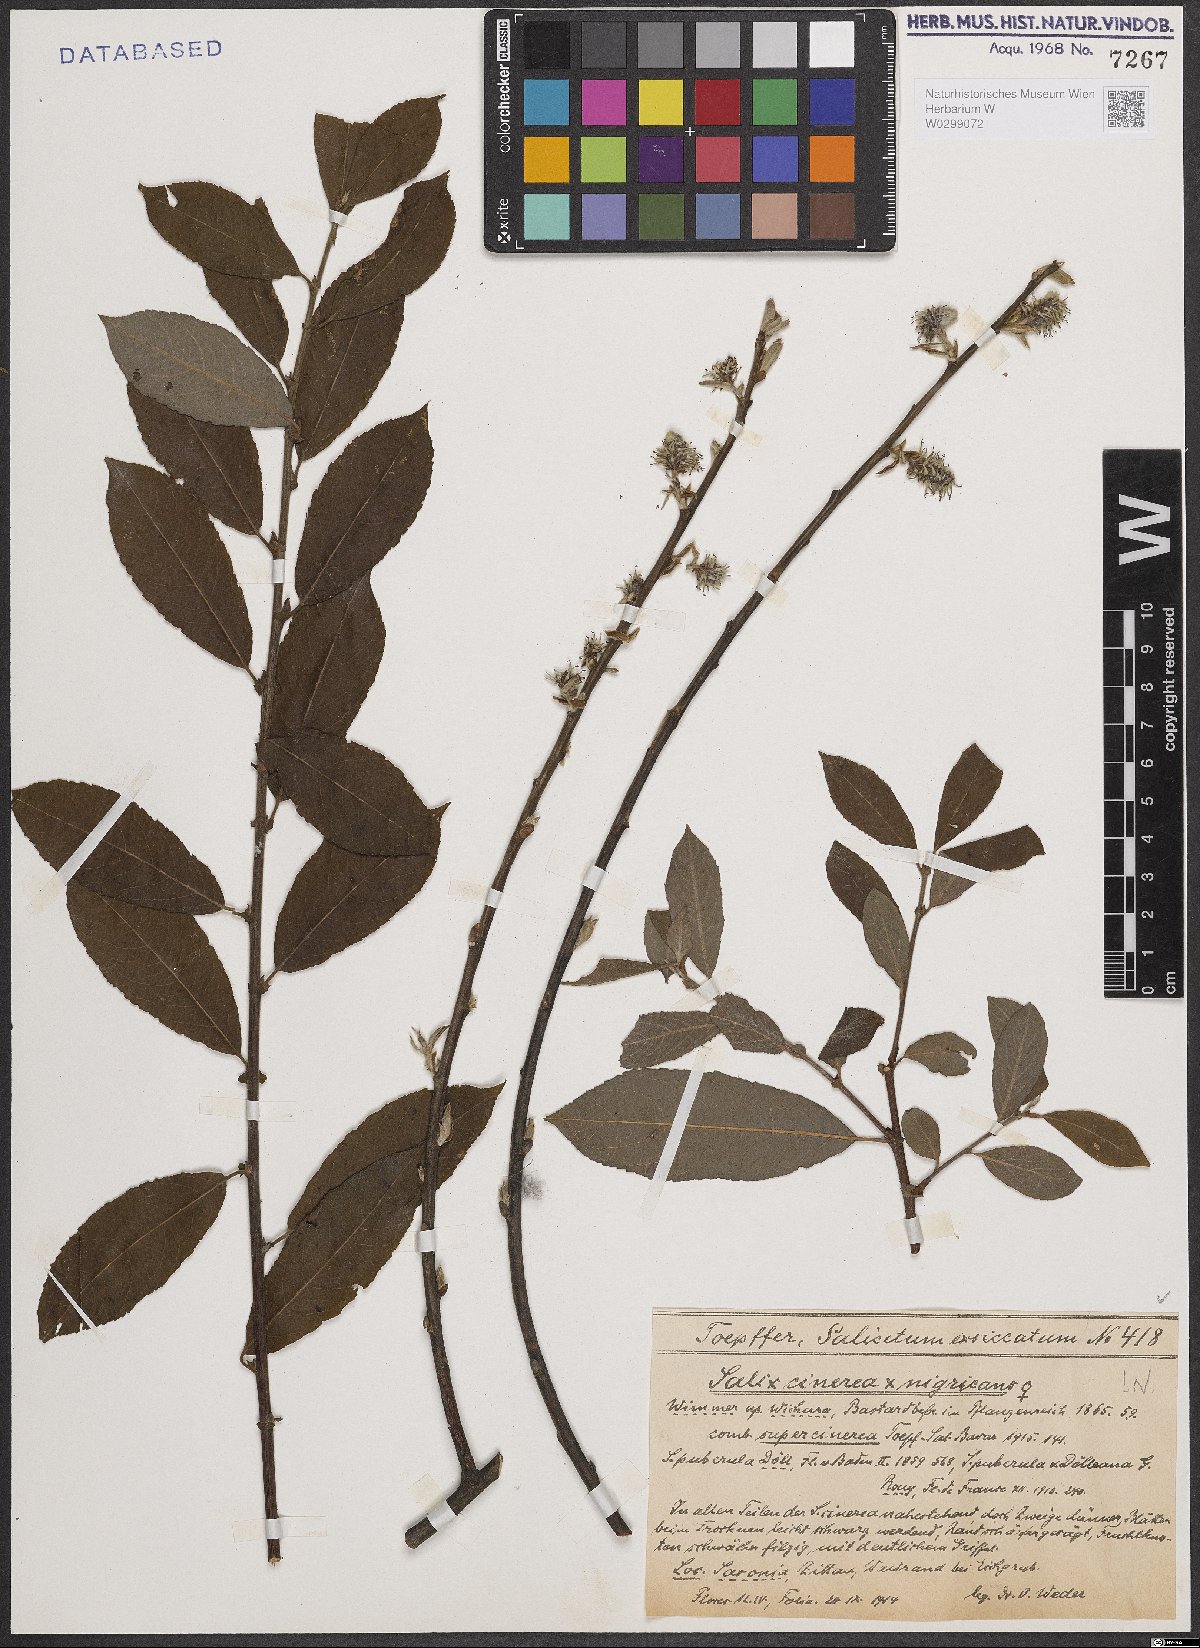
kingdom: Plantae
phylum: Tracheophyta
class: Magnoliopsida
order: Malpighiales
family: Salicaceae
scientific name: Salicaceae
